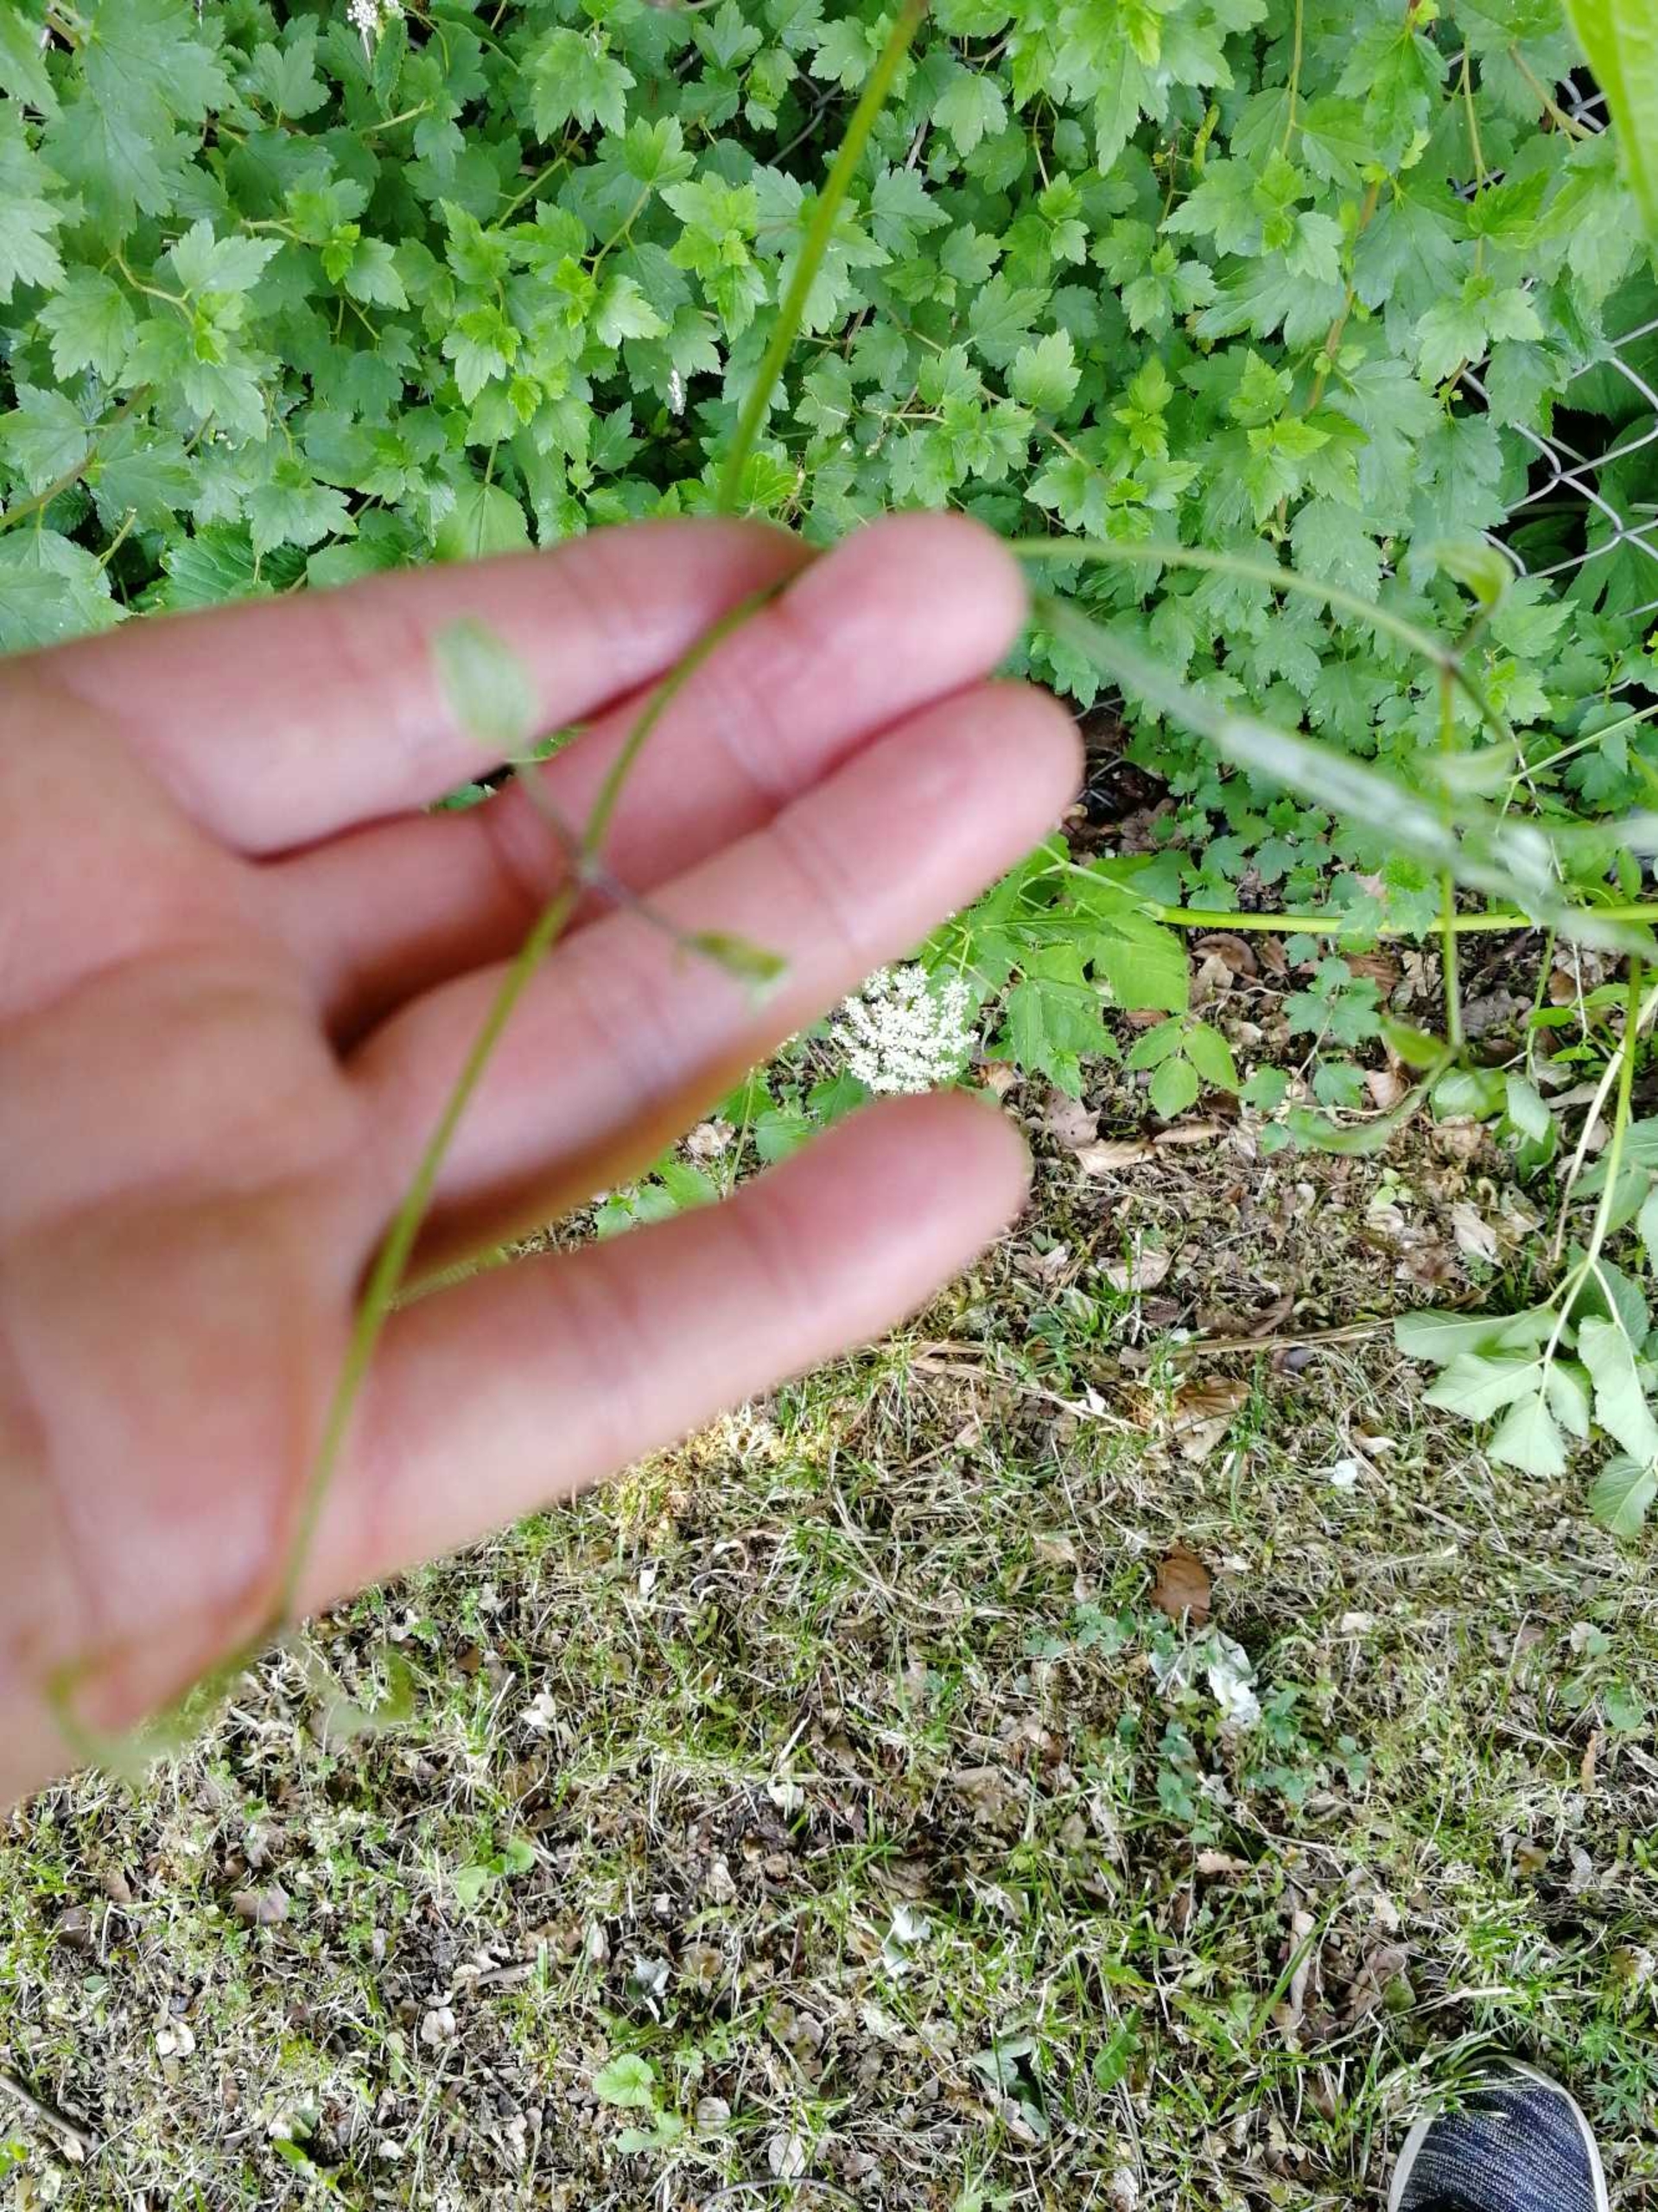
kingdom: Plantae
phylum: Tracheophyta
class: Magnoliopsida
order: Ranunculales
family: Ranunculaceae
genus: Clematis
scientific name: Clematis vitalba
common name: Skovranke
